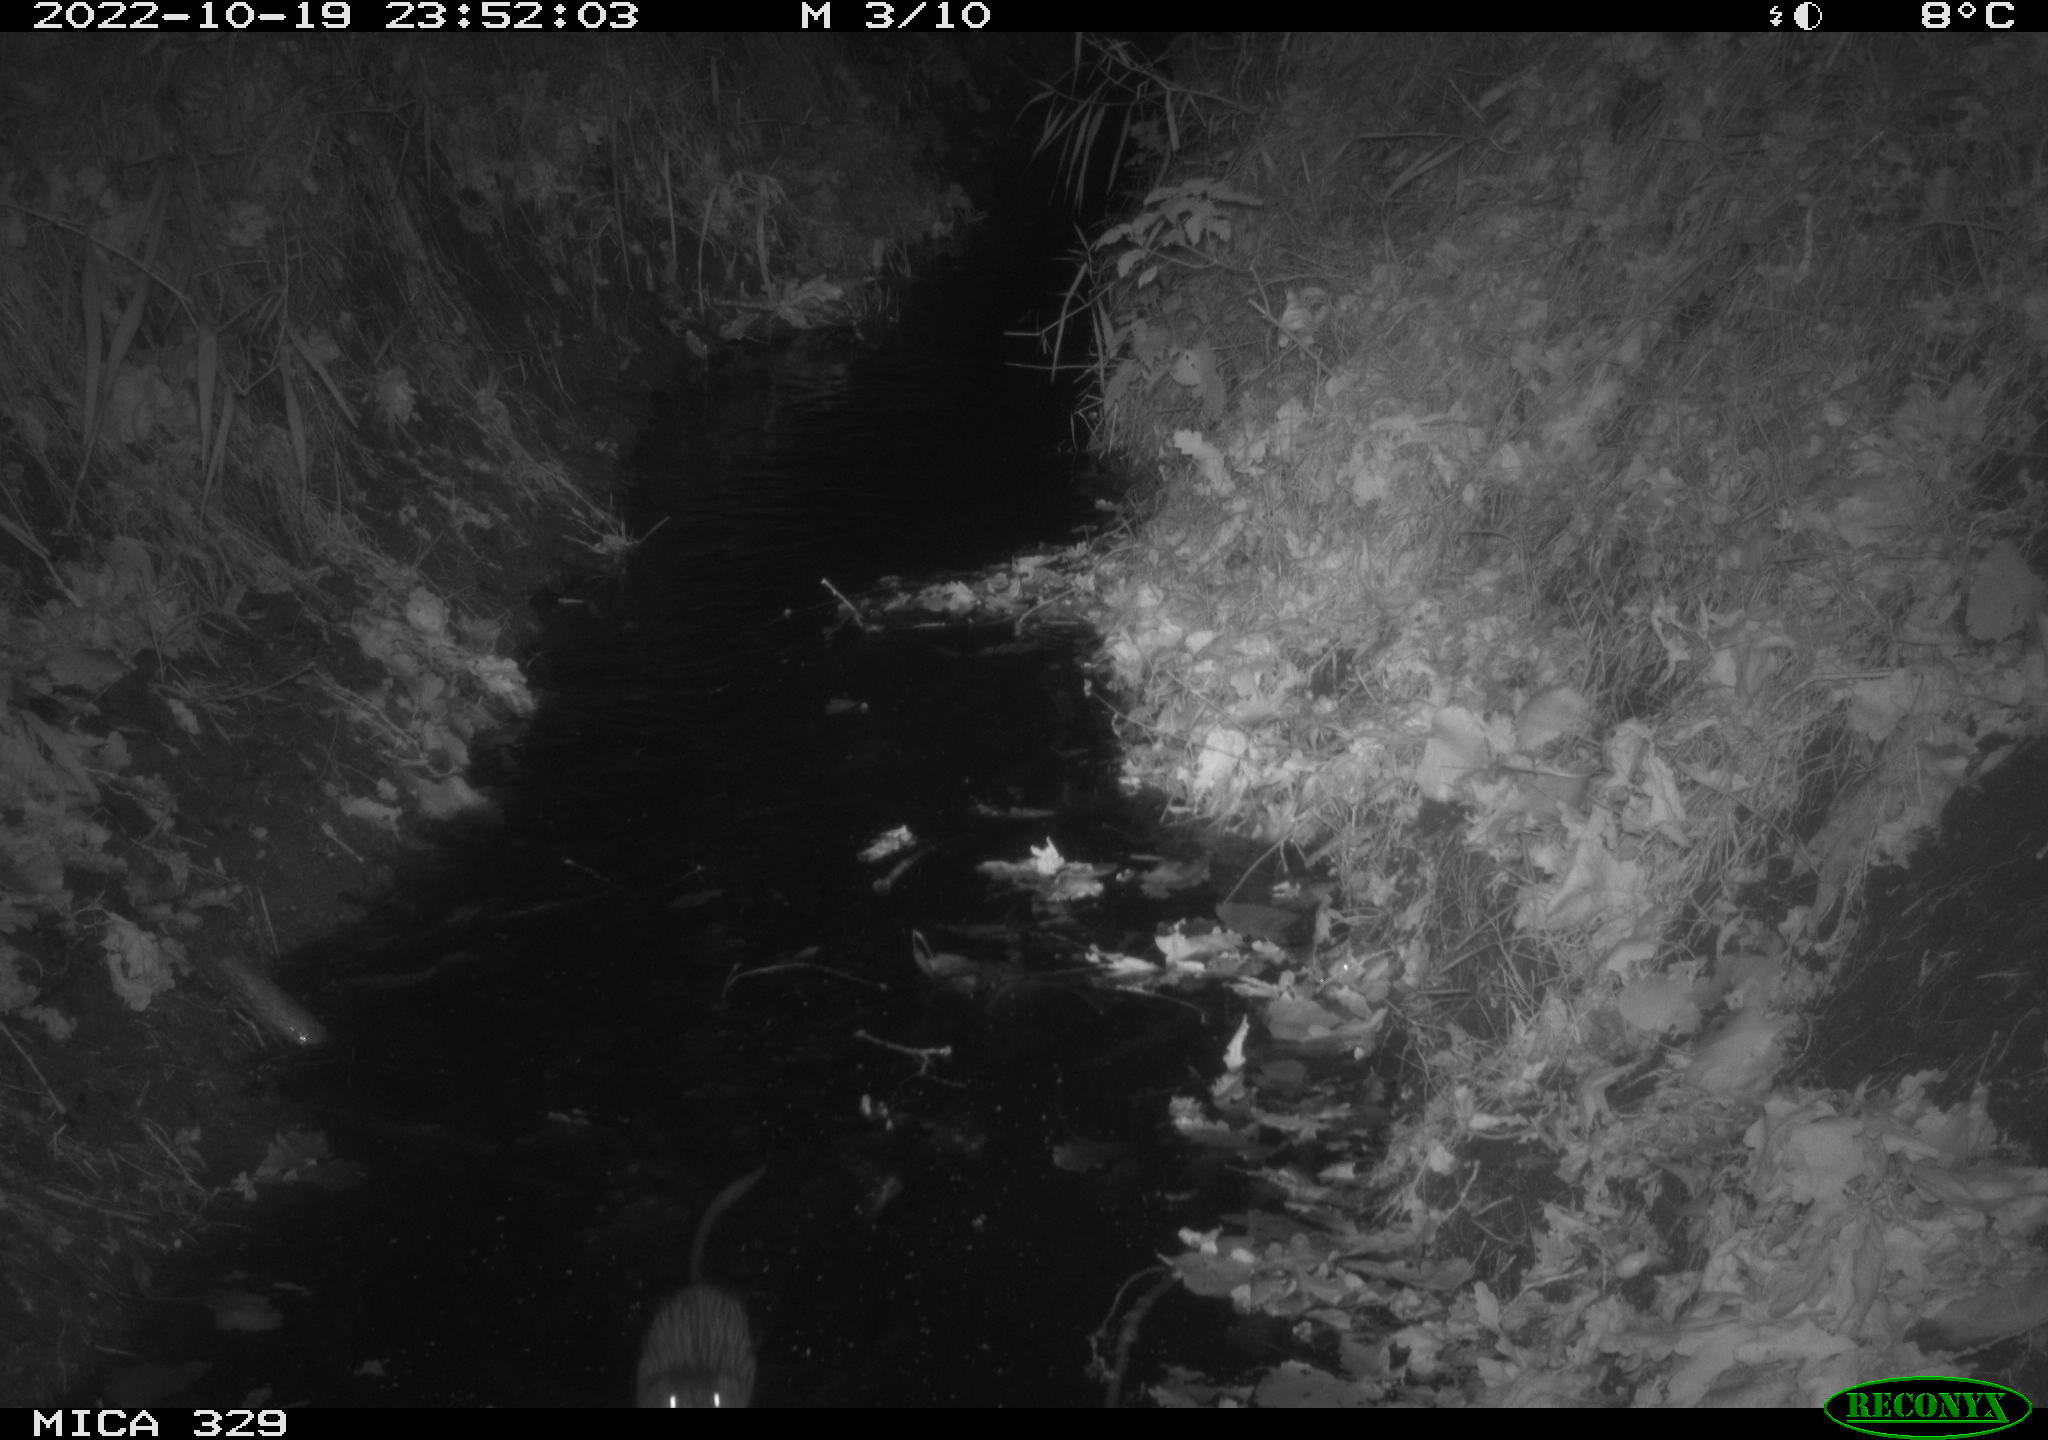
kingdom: Animalia
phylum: Chordata
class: Mammalia
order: Rodentia
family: Cricetidae
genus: Ondatra
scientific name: Ondatra zibethicus
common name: Muskrat
